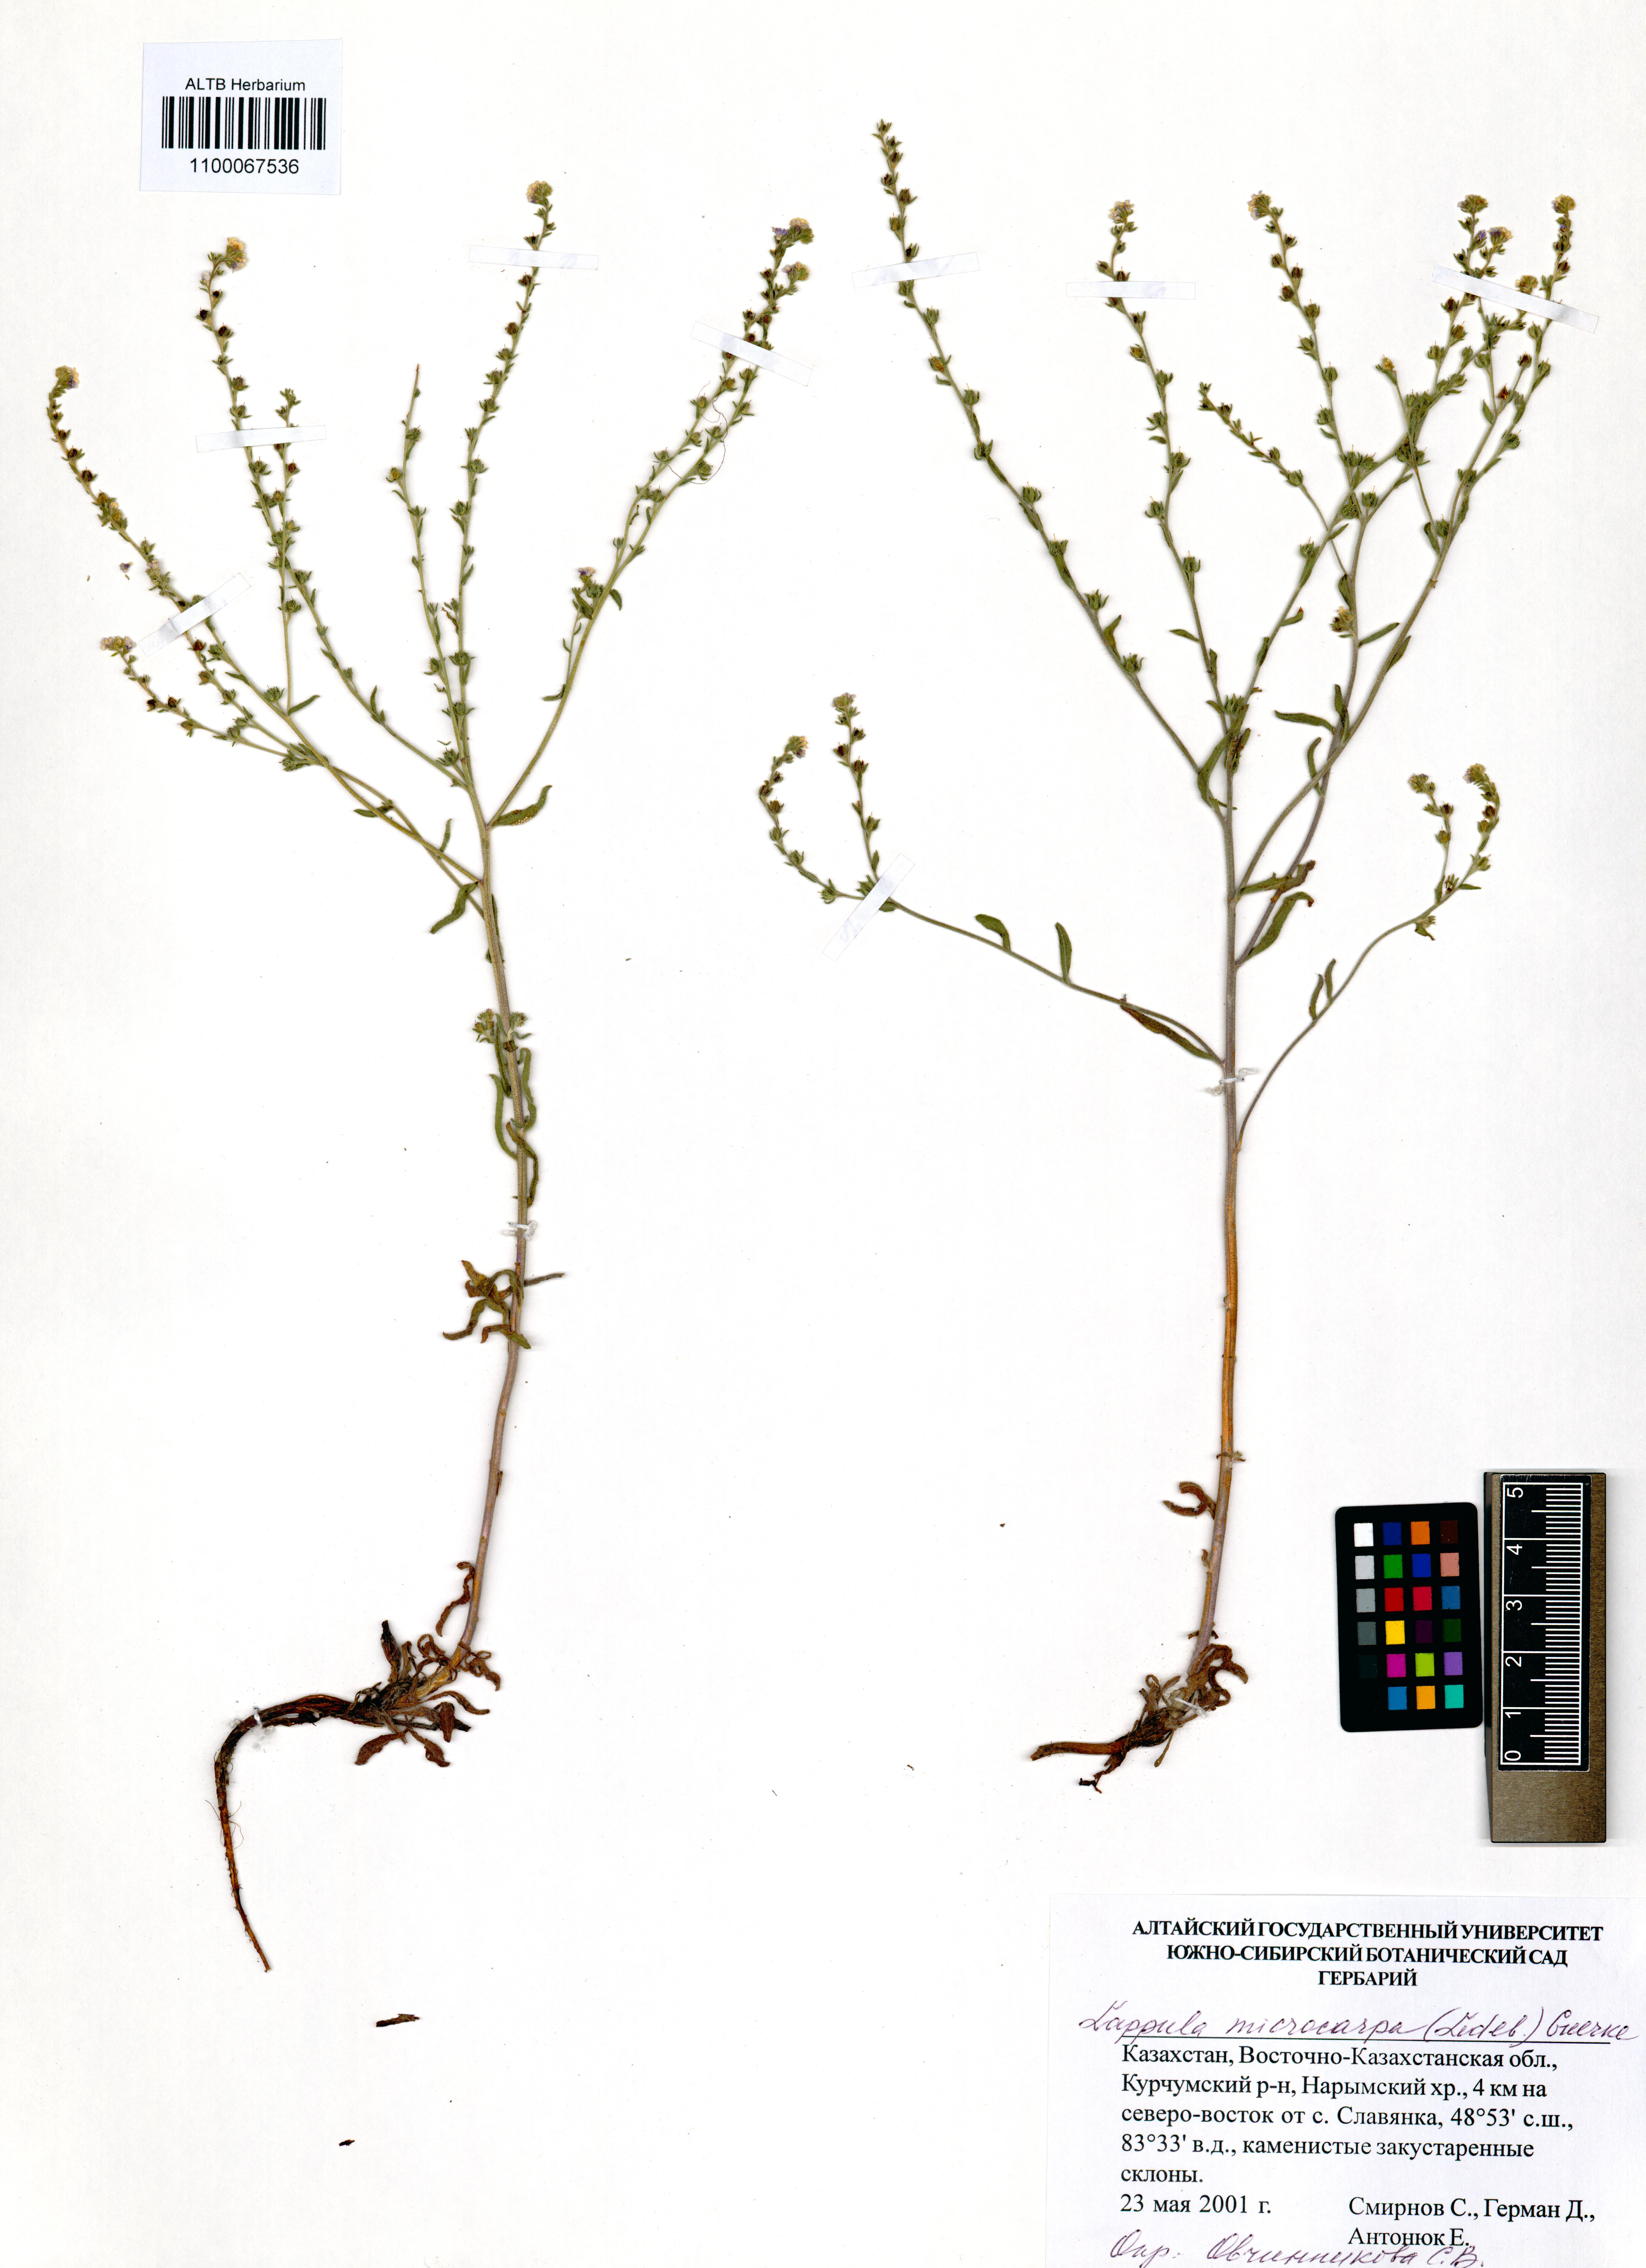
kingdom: Plantae
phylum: Tracheophyta
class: Magnoliopsida
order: Boraginales
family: Boraginaceae
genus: Lappula
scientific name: Lappula microcarpa
